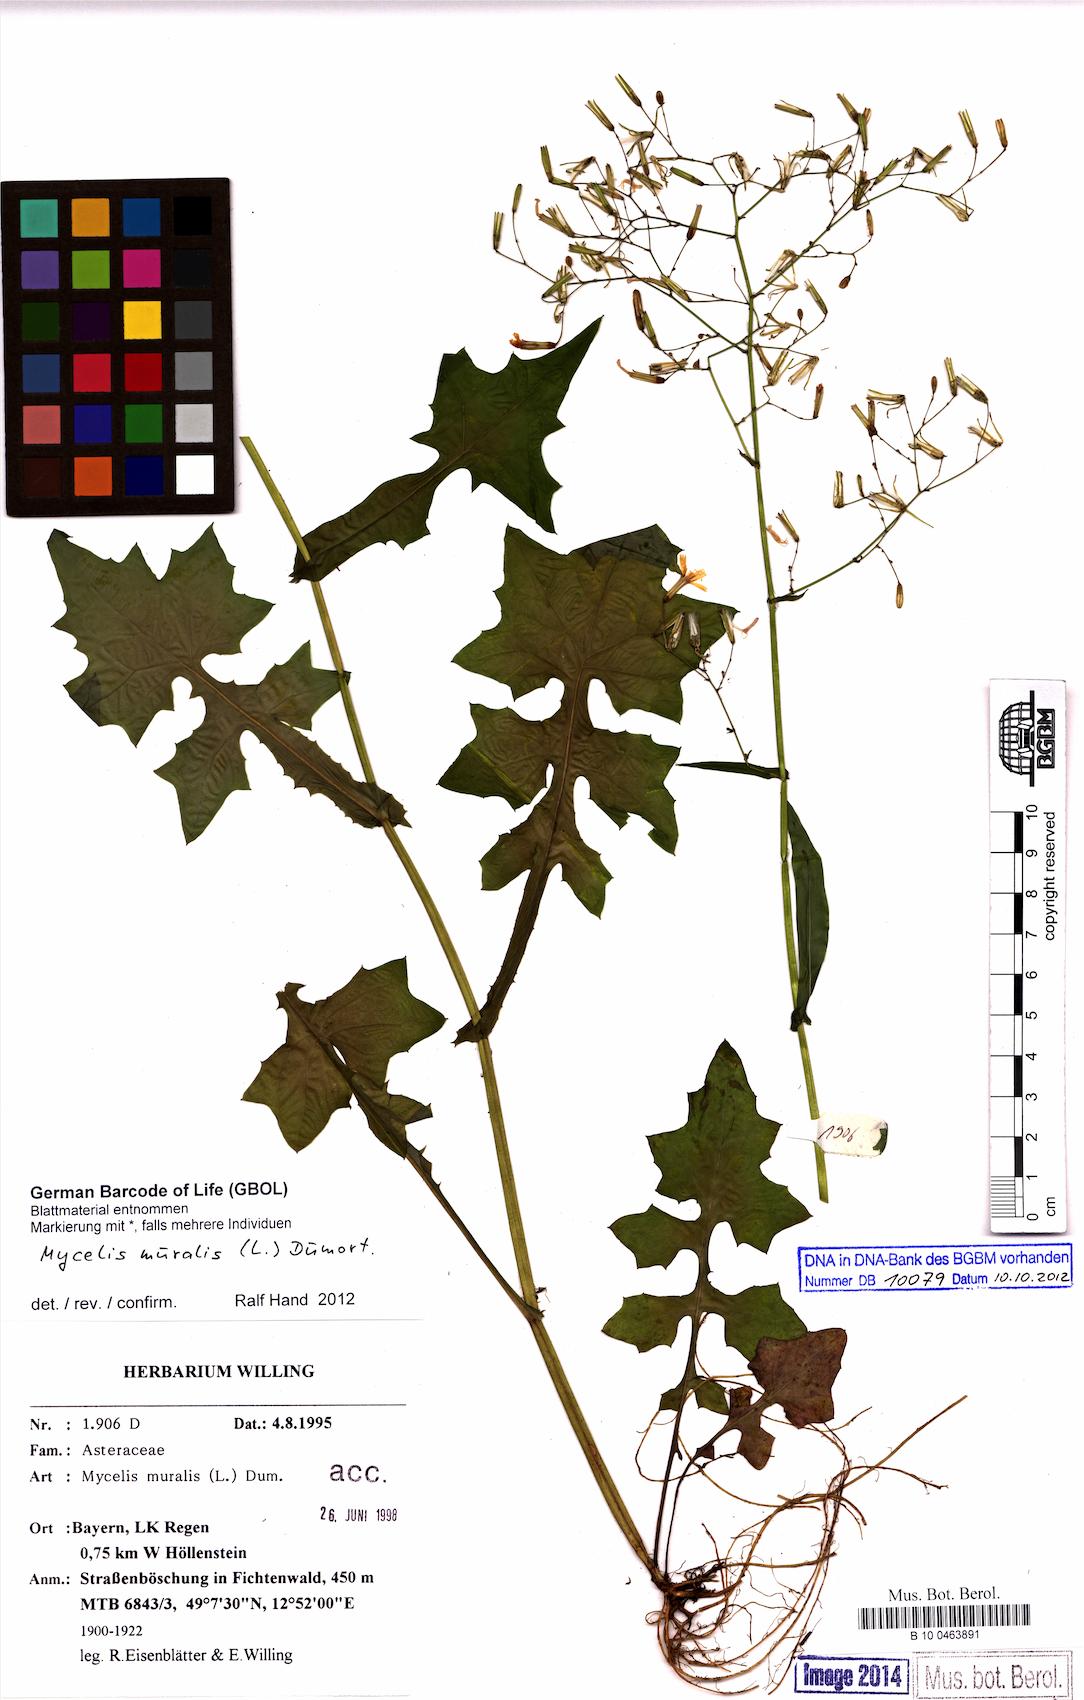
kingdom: Plantae
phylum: Tracheophyta
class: Magnoliopsida
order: Asterales
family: Asteraceae
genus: Mycelis
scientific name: Mycelis muralis
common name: Wall lettuce
